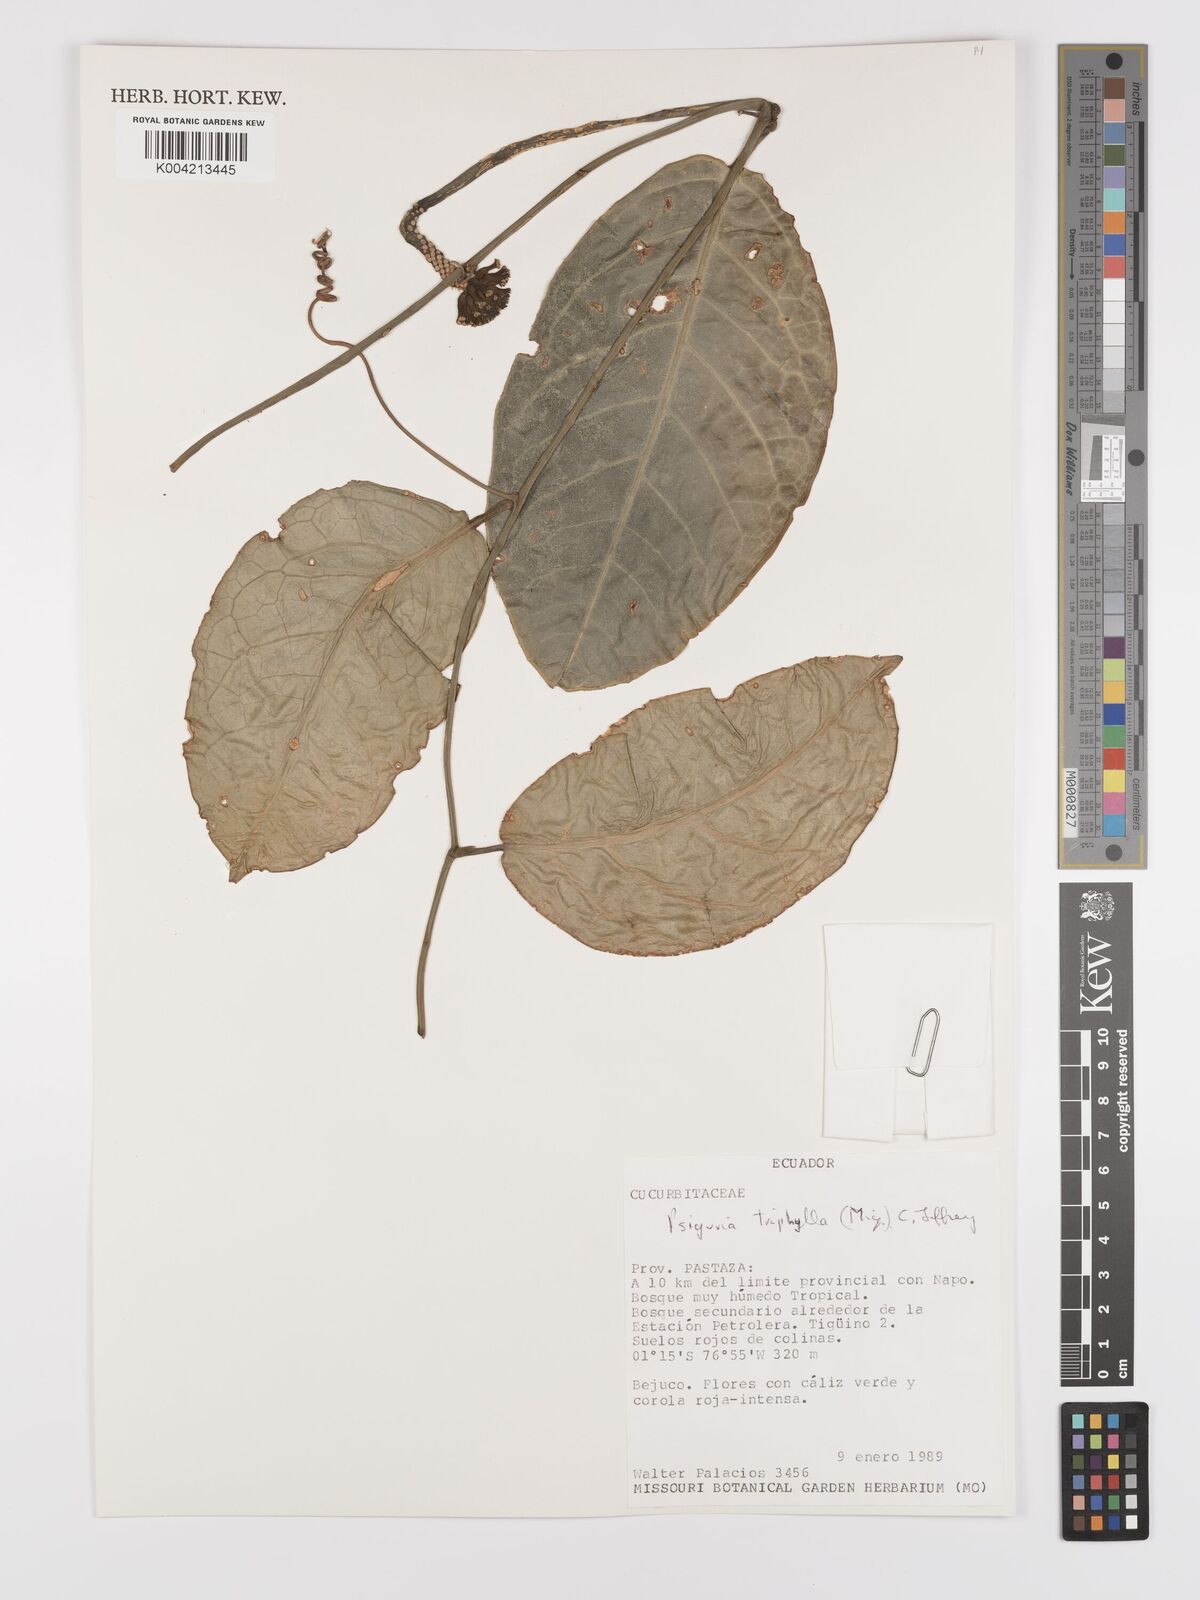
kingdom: Plantae
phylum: Tracheophyta
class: Magnoliopsida
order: Cucurbitales
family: Cucurbitaceae
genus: Psiguria
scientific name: Psiguria triphylla
